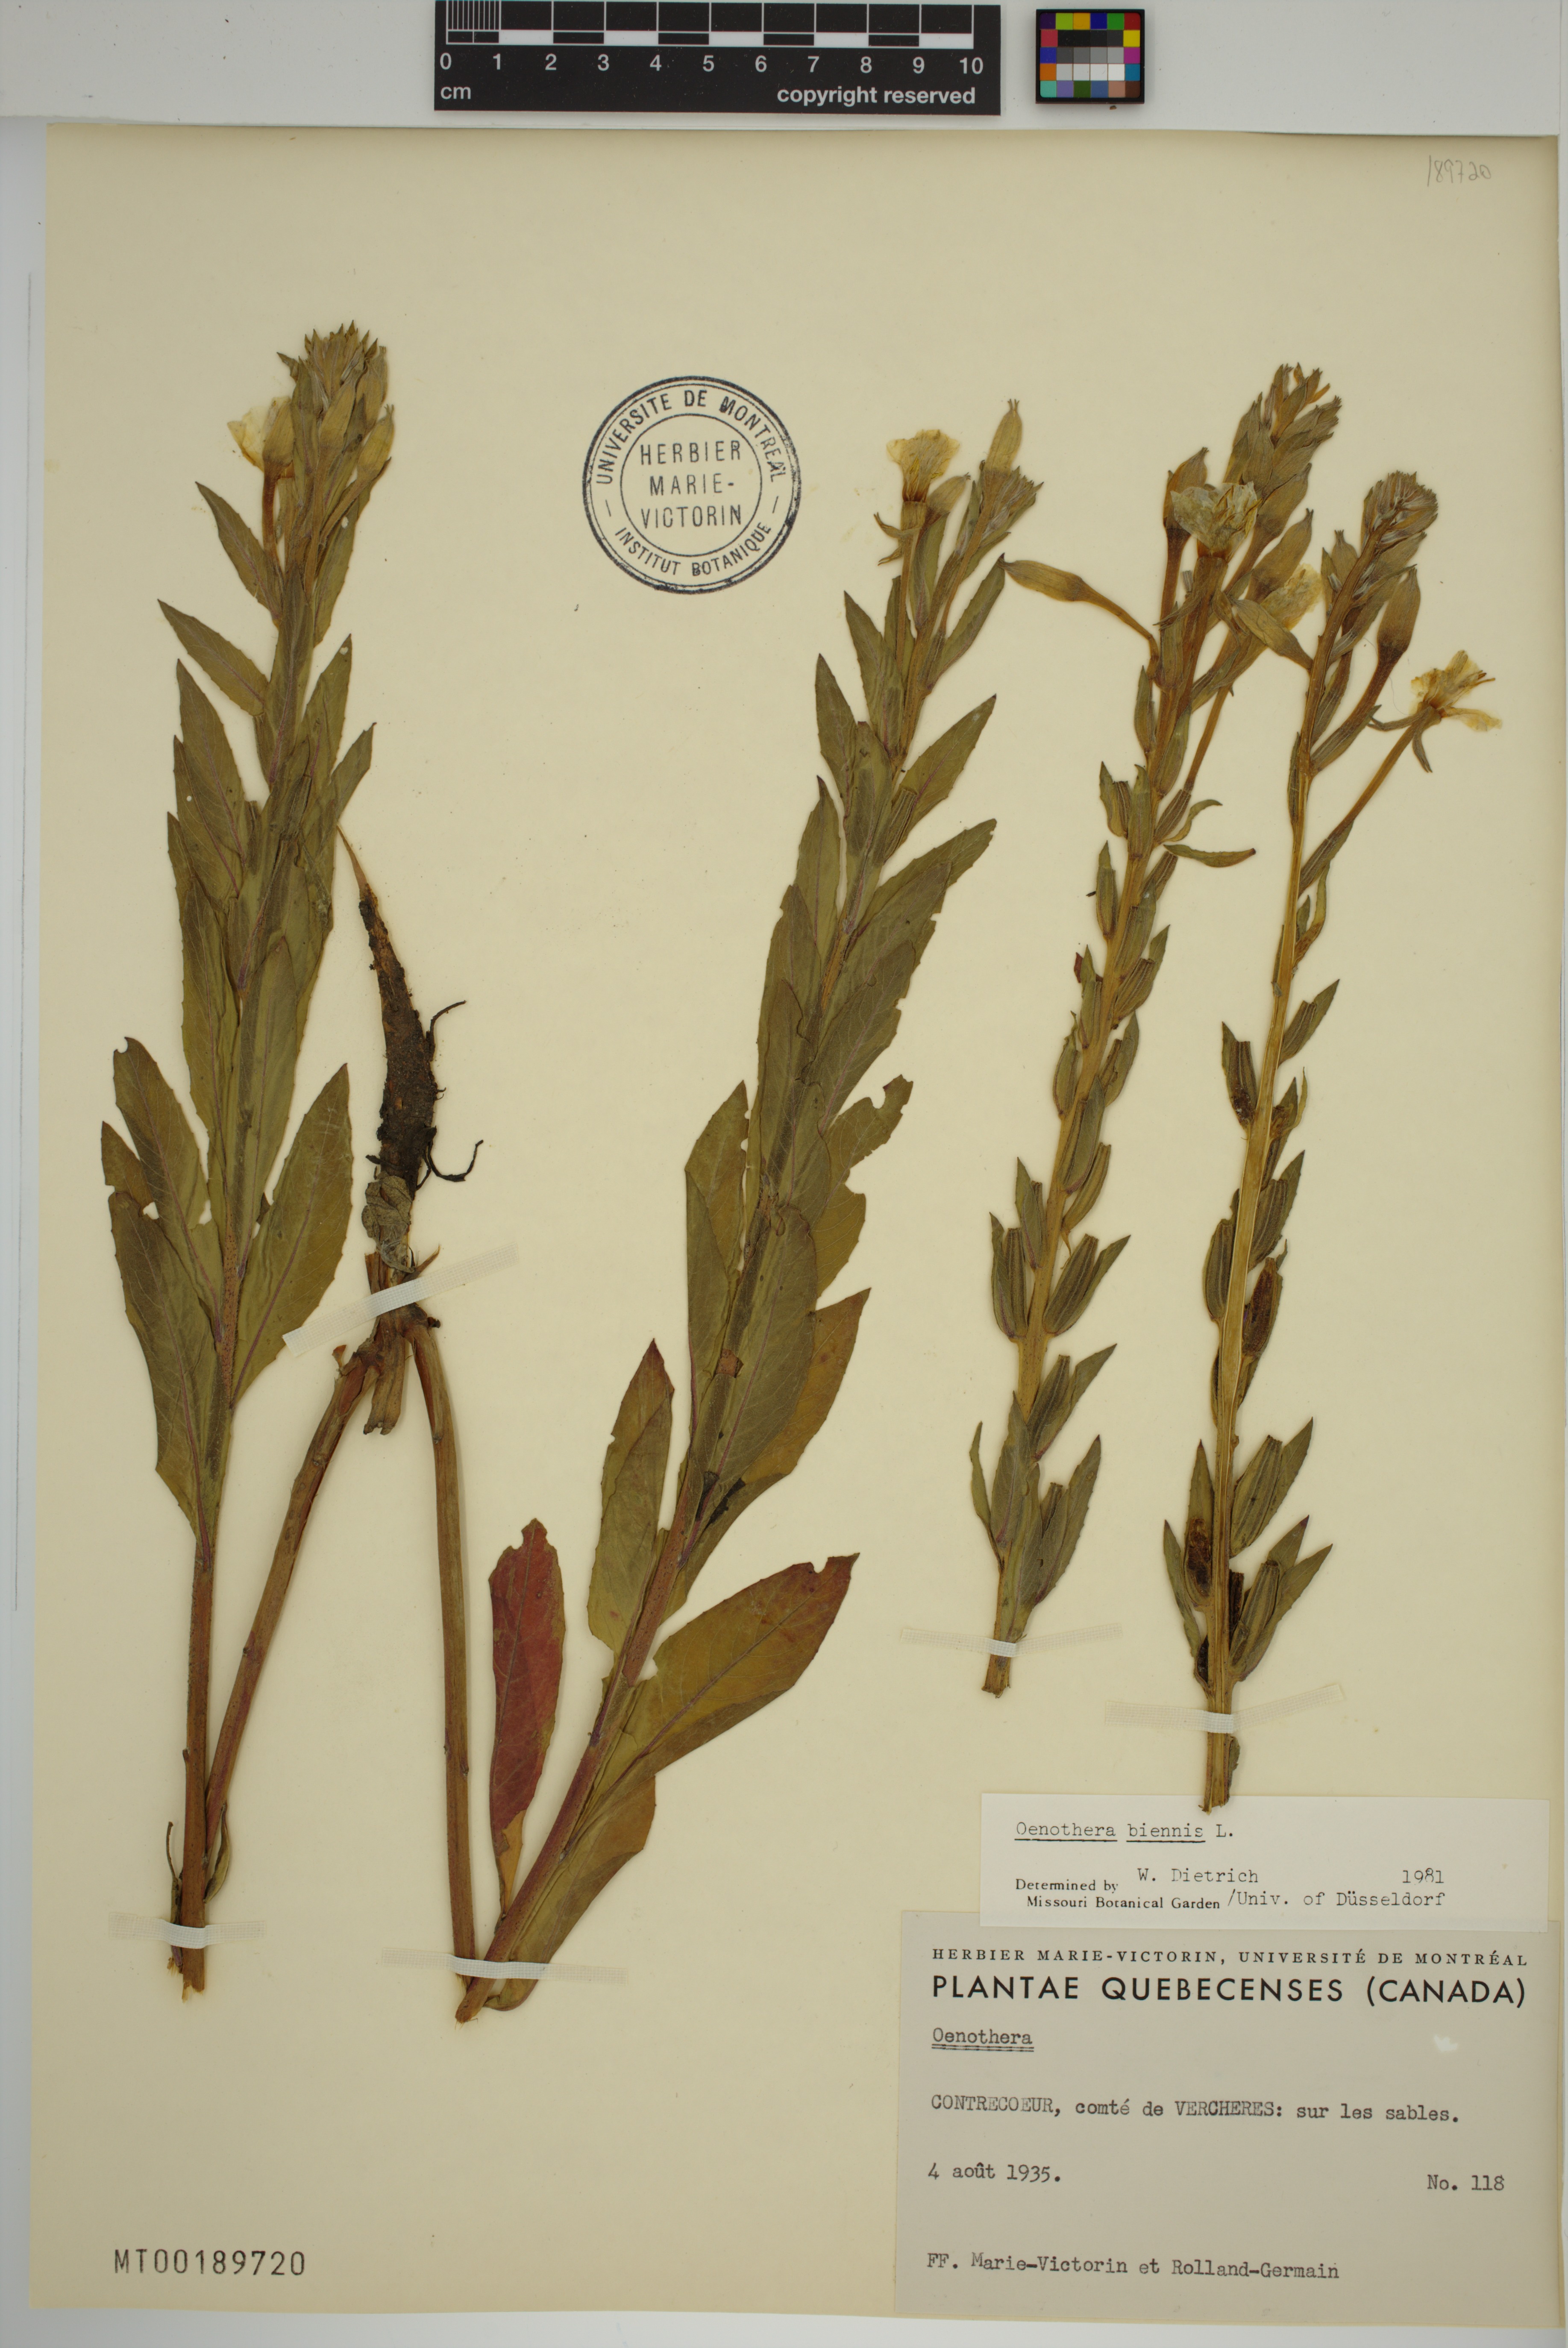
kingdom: Plantae
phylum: Tracheophyta
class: Magnoliopsida
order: Myrtales
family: Onagraceae
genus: Oenothera
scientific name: Oenothera biennis
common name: Common evening-primrose
